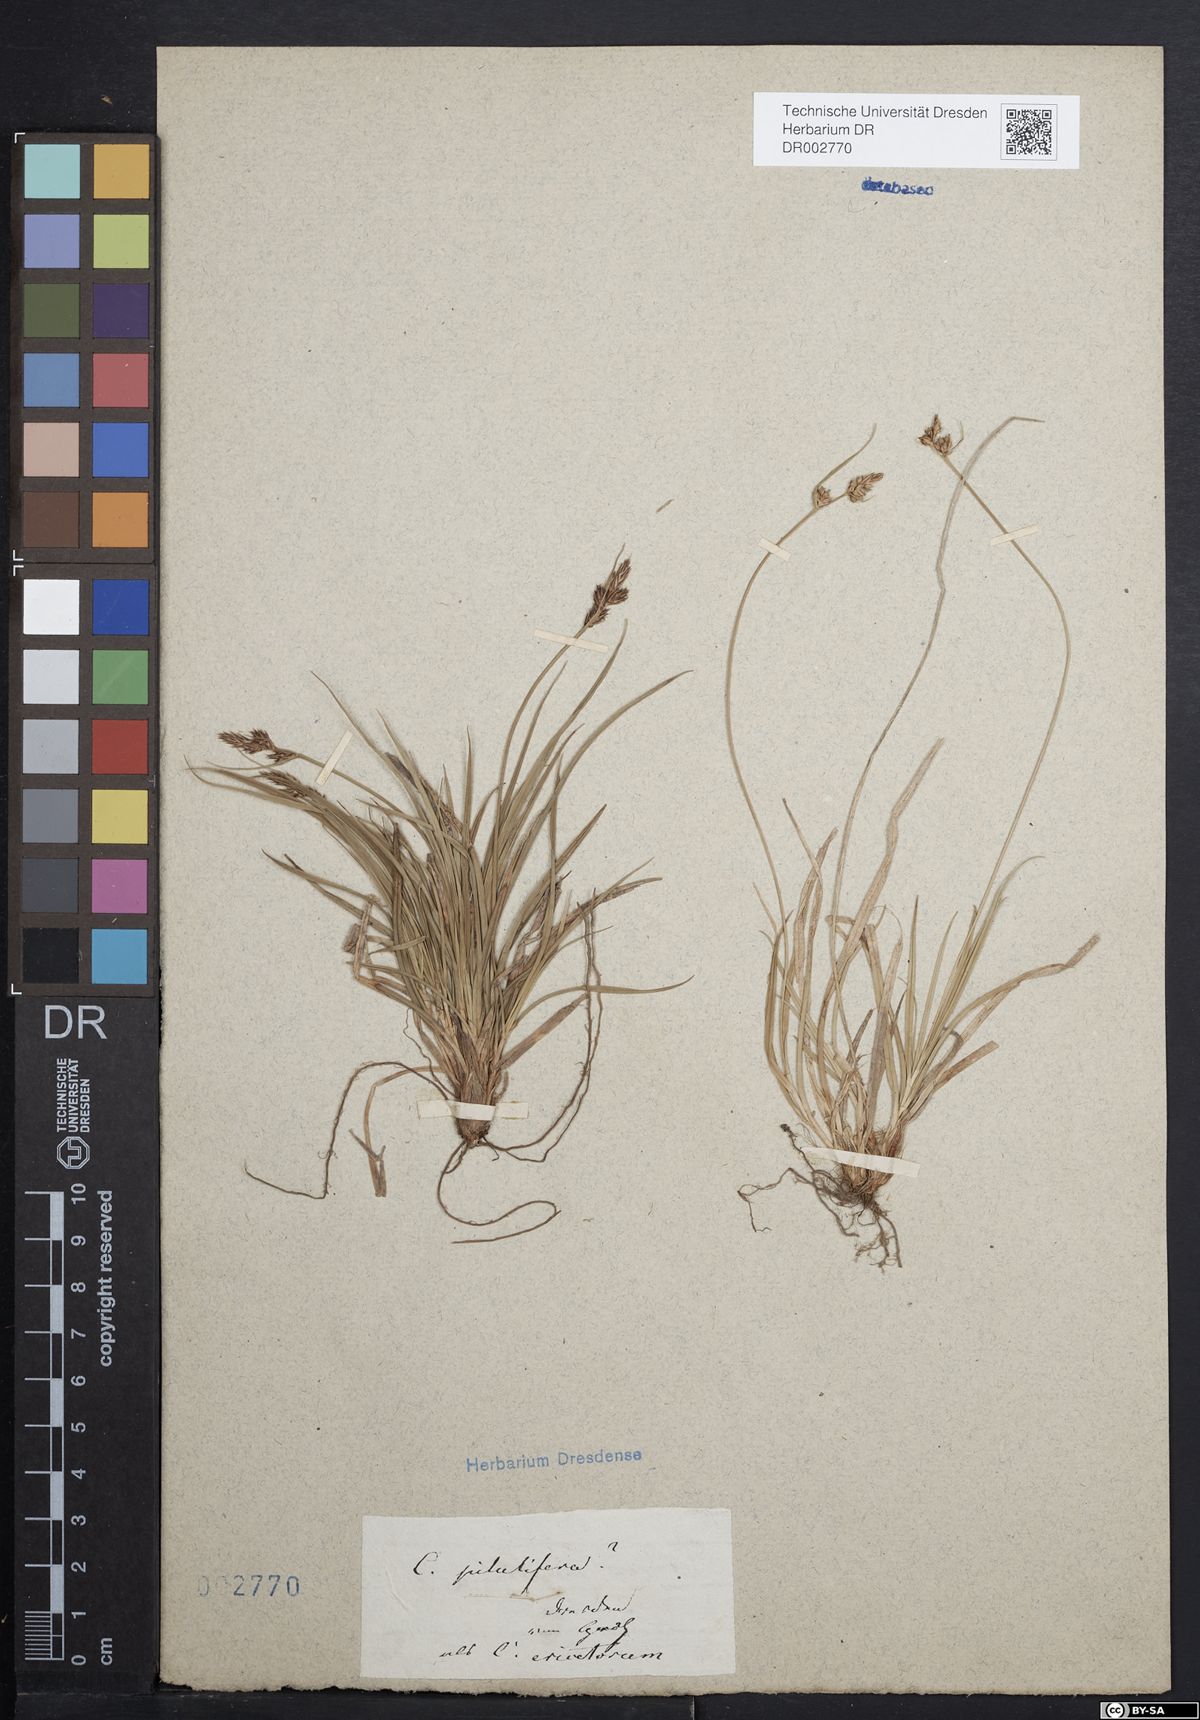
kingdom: Plantae
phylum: Tracheophyta
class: Liliopsida
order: Poales
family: Cyperaceae
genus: Carex
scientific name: Carex caryophyllea
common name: Spring sedge
